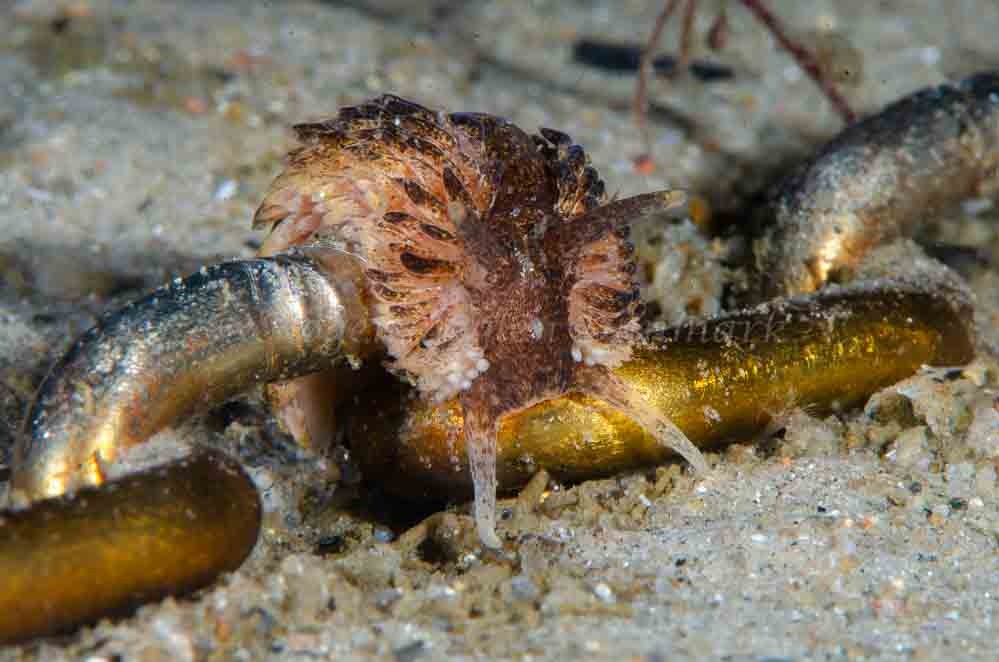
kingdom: Animalia
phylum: Mollusca
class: Gastropoda
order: Nudibranchia
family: Aeolidiidae
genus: Aeolidia
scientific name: Aeolidia papillosa
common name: Stor trådsnegl
